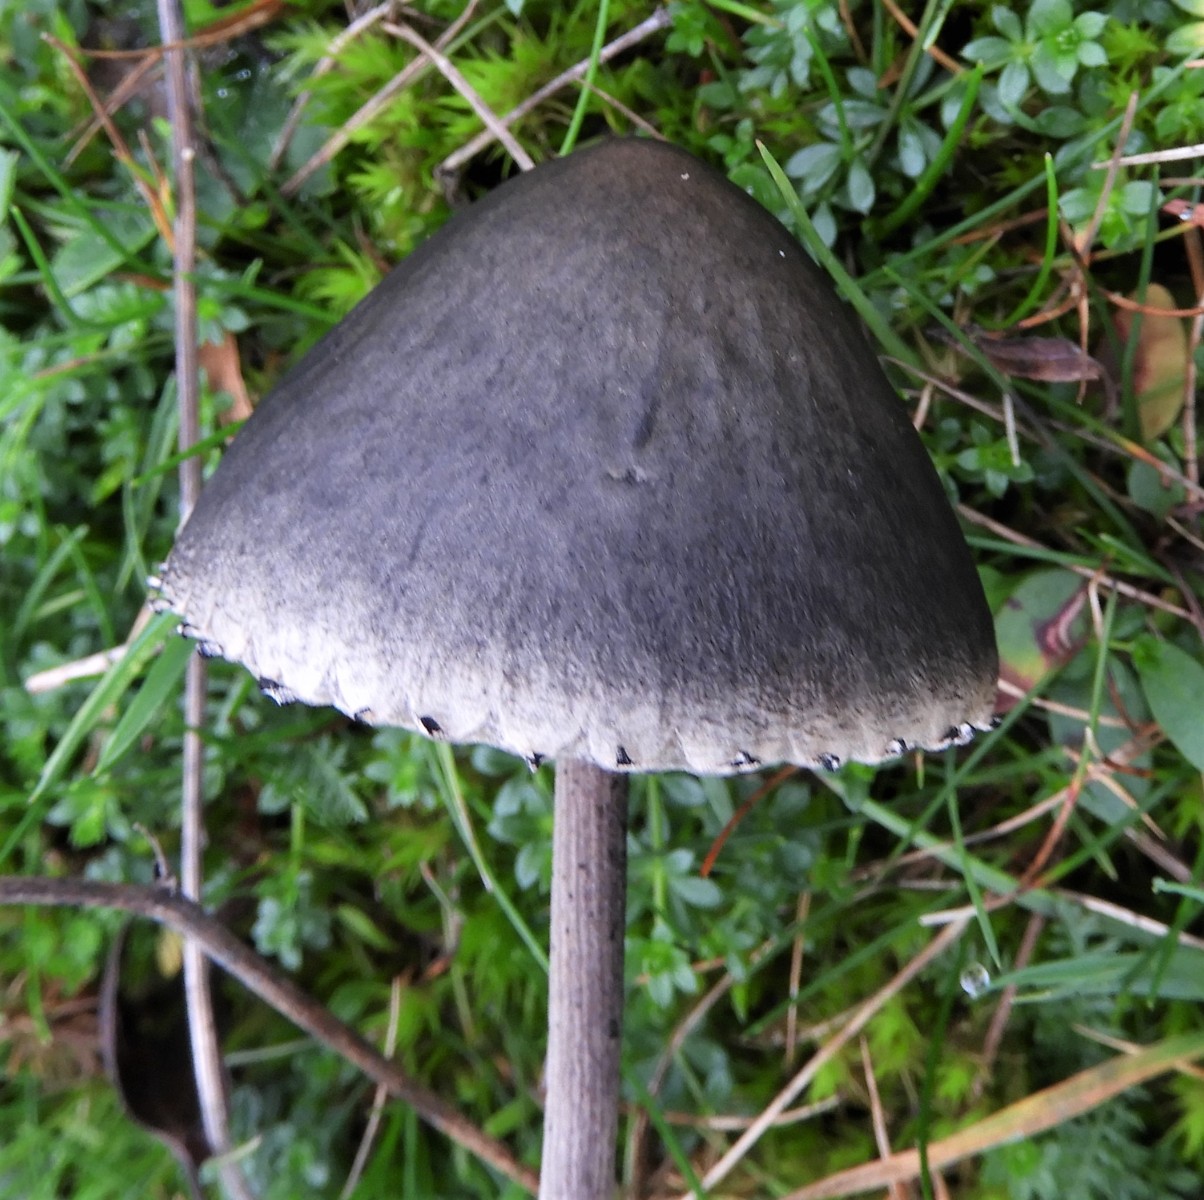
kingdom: Fungi
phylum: Basidiomycota
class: Agaricomycetes
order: Agaricales
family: Bolbitiaceae
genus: Panaeolus
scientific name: Panaeolus papilionaceus
